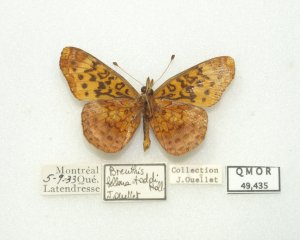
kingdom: Animalia
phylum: Arthropoda
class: Insecta
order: Lepidoptera
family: Nymphalidae
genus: Clossiana
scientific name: Clossiana toddi
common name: Meadow Fritillary
